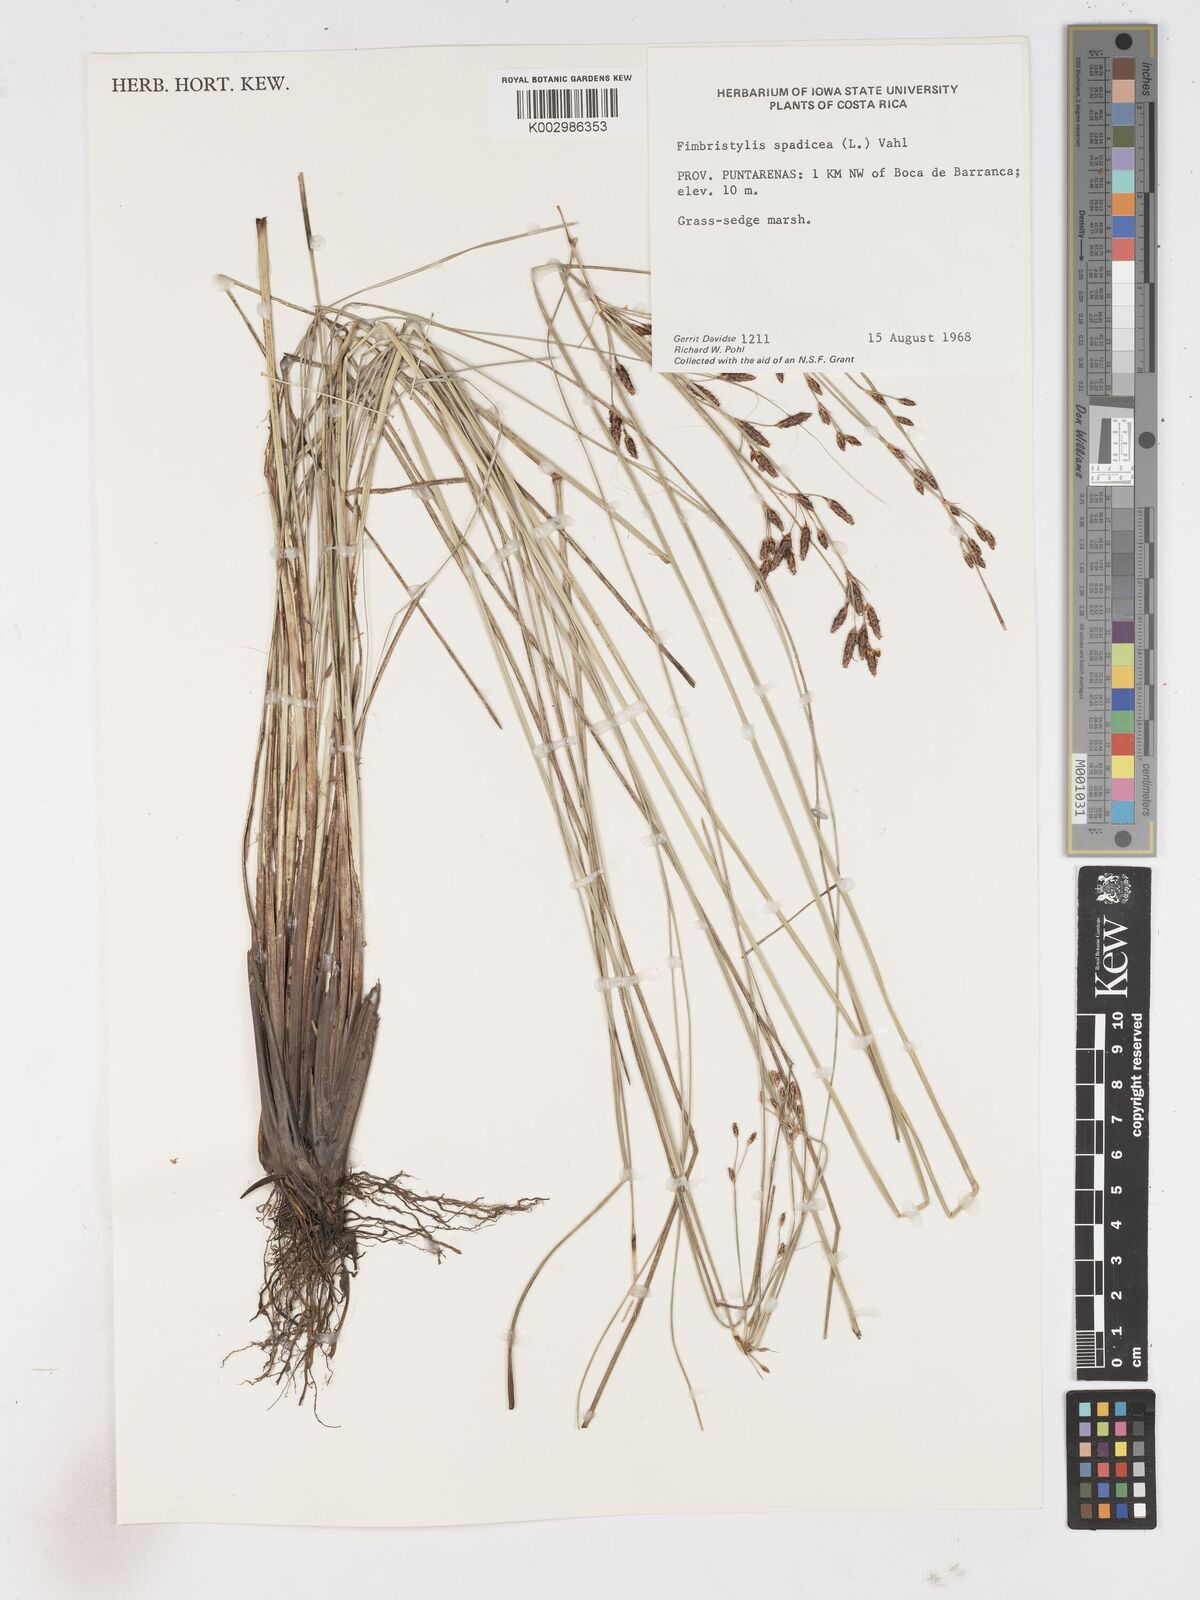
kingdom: Plantae
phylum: Tracheophyta
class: Liliopsida
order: Poales
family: Cyperaceae
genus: Fimbristylis
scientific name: Fimbristylis
